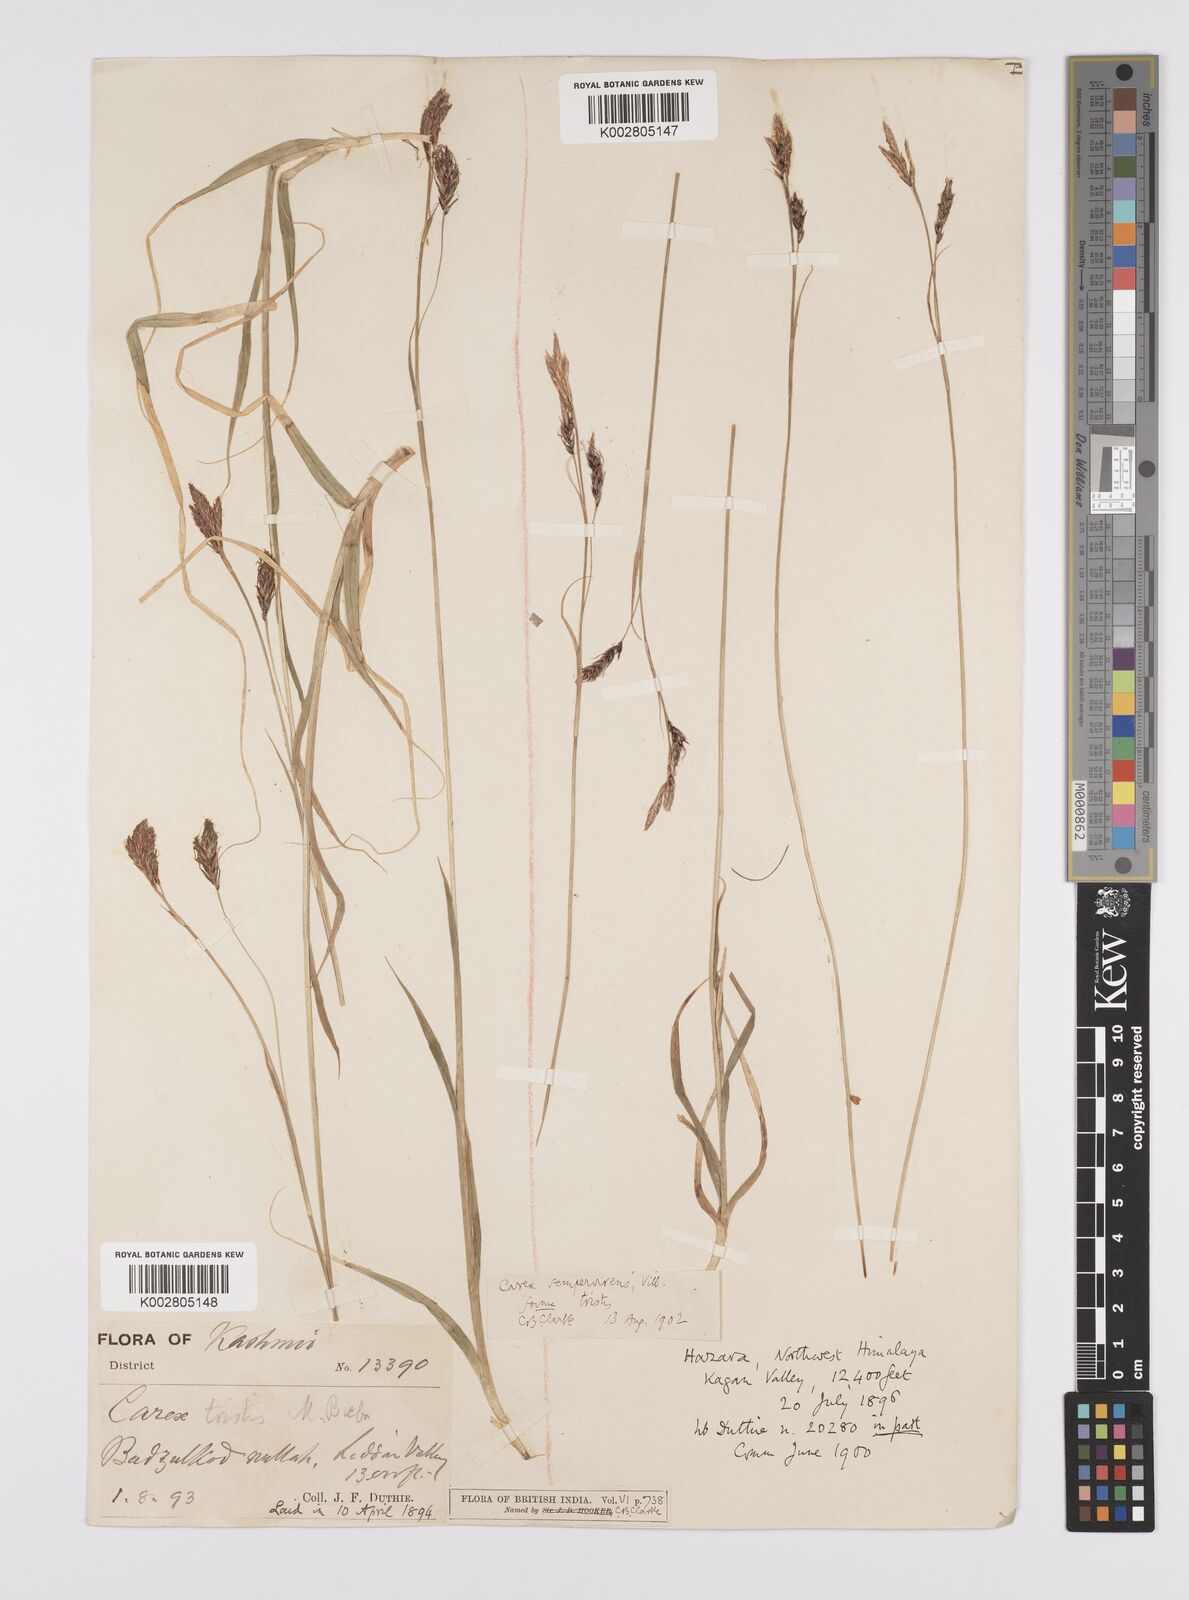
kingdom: Plantae
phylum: Tracheophyta
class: Liliopsida
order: Poales
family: Cyperaceae
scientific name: Cyperaceae
